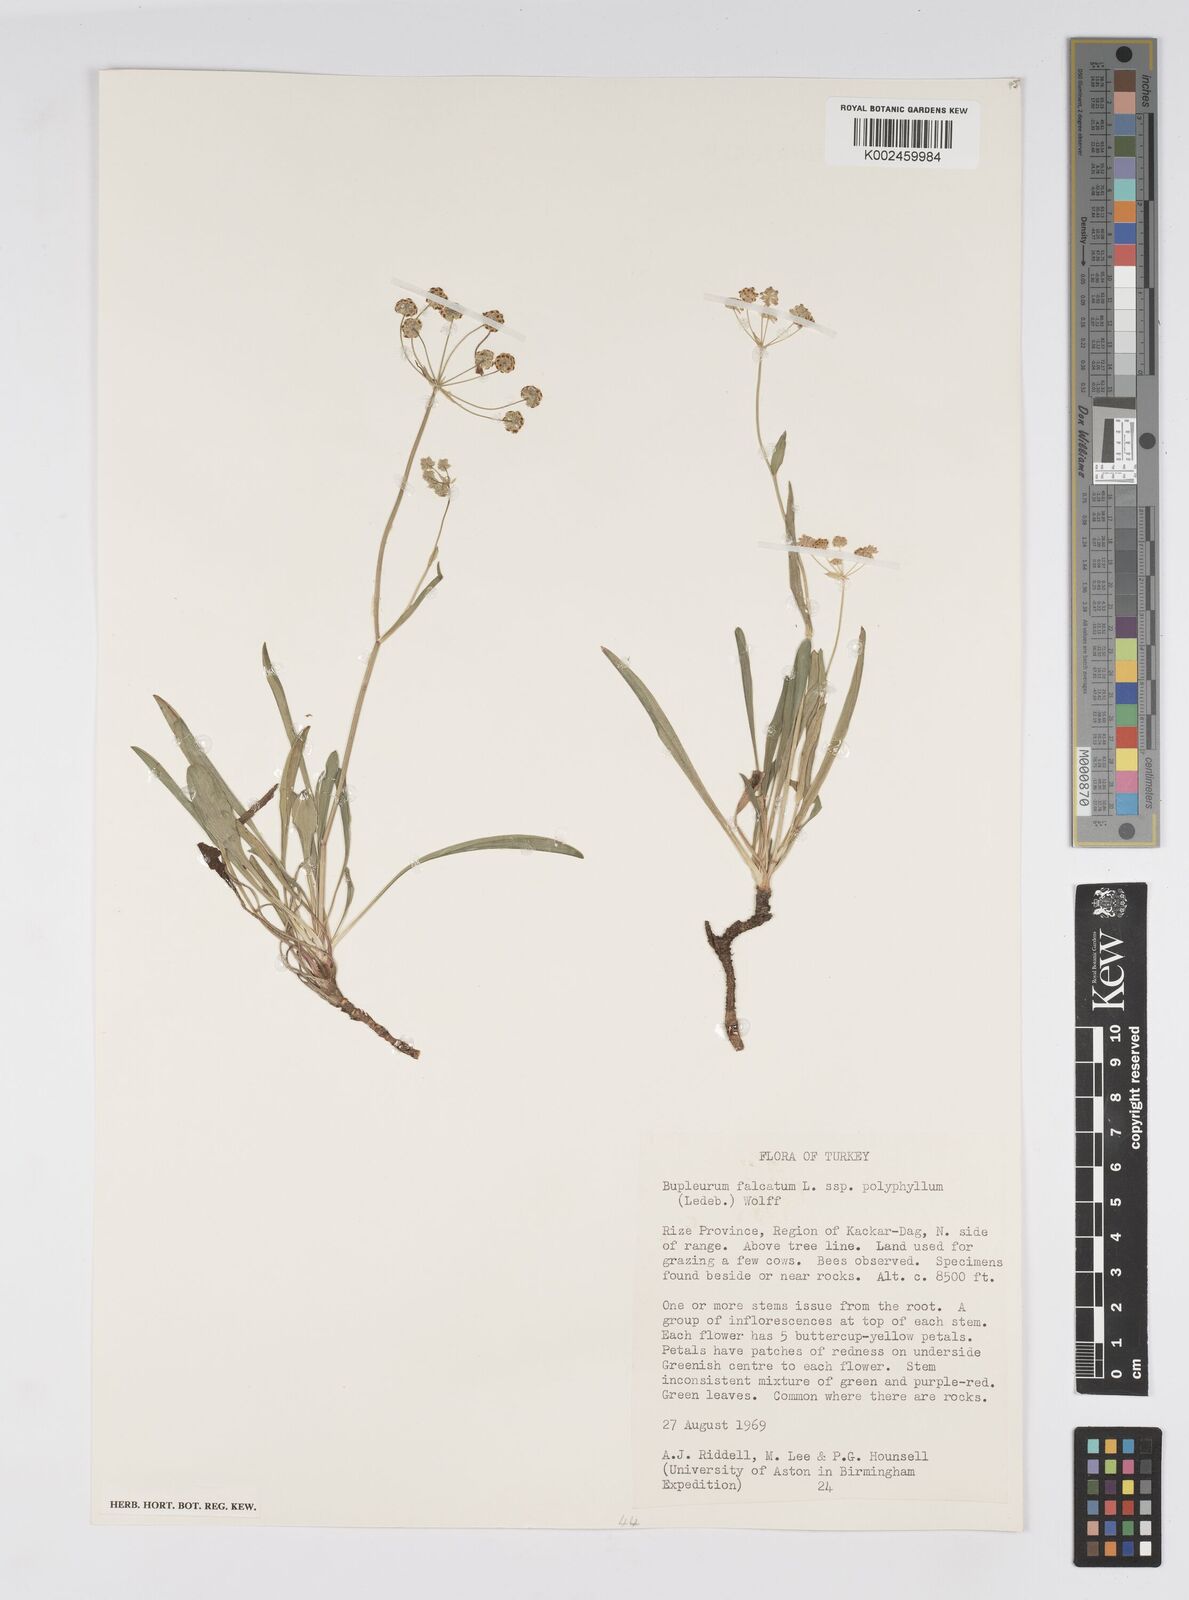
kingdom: Plantae
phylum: Tracheophyta
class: Magnoliopsida
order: Apiales
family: Apiaceae
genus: Bupleurum
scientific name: Bupleurum falcatum
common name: Sickle-leaved hare's-ear
